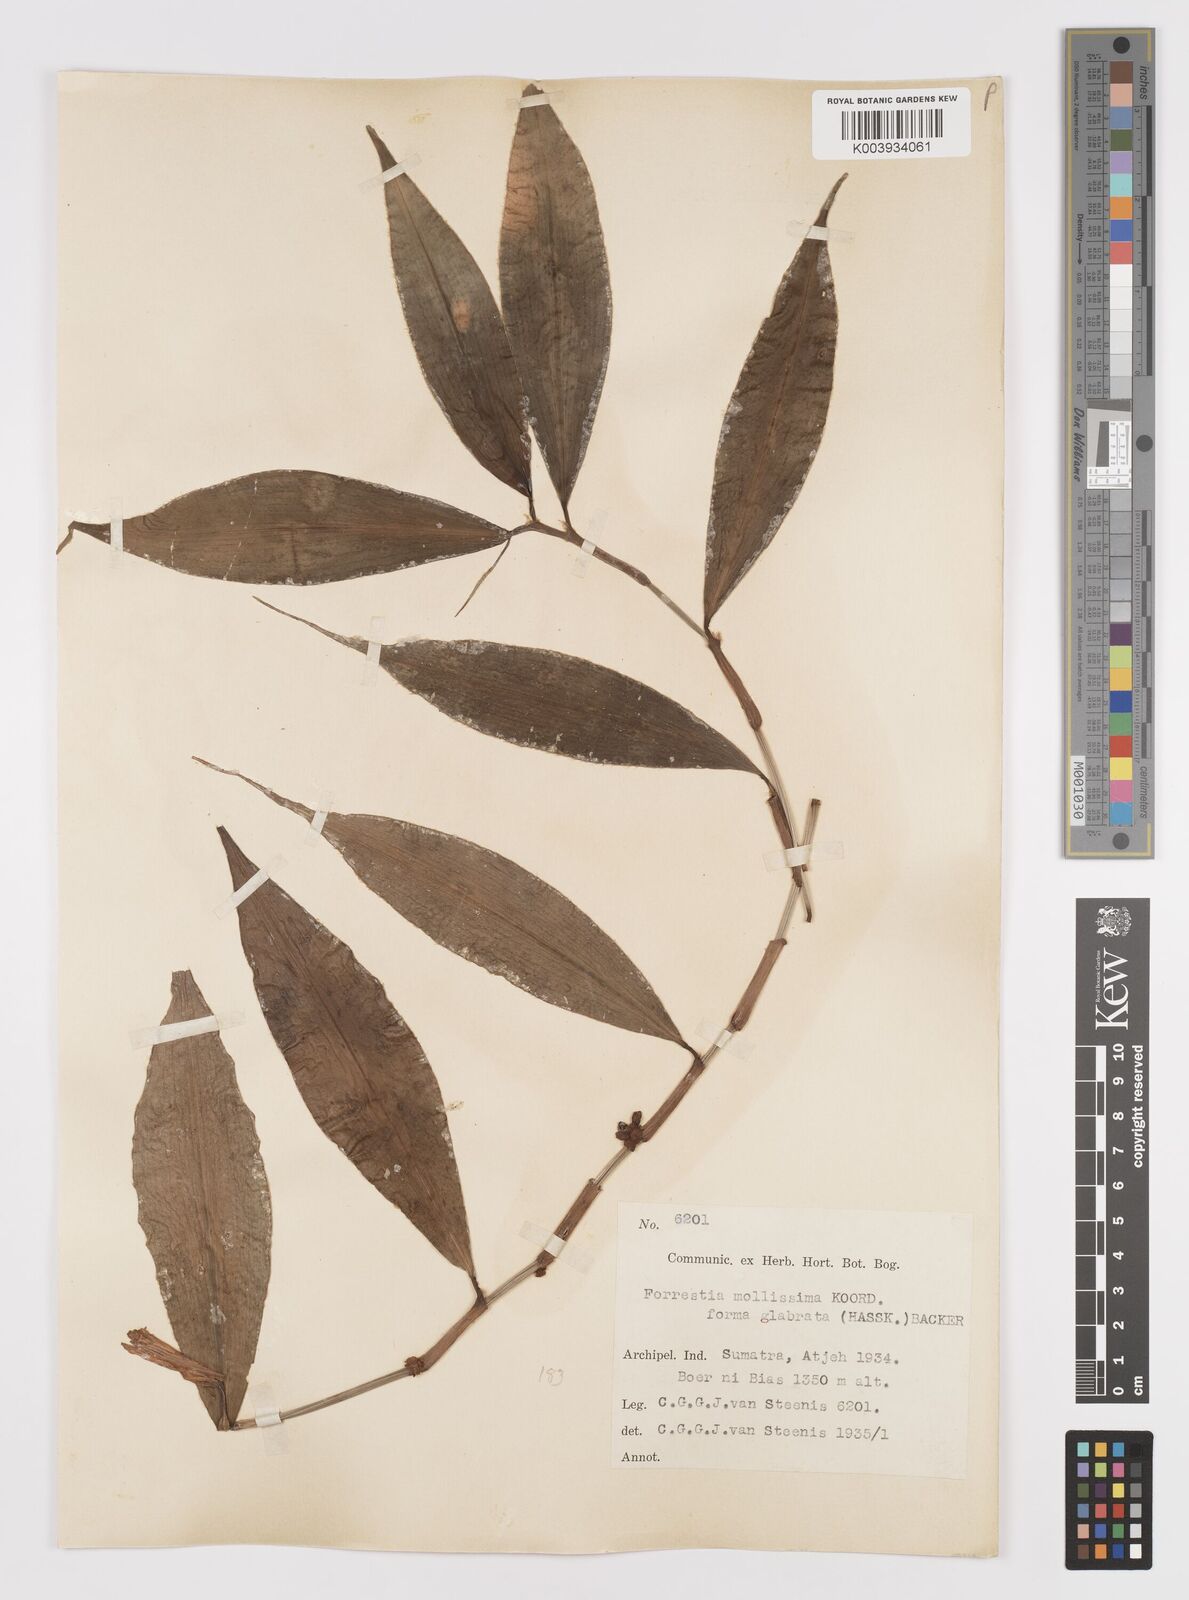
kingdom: Plantae
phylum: Tracheophyta
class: Liliopsida
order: Commelinales
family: Commelinaceae
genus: Amischotolype
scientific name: Amischotolype glabrata
